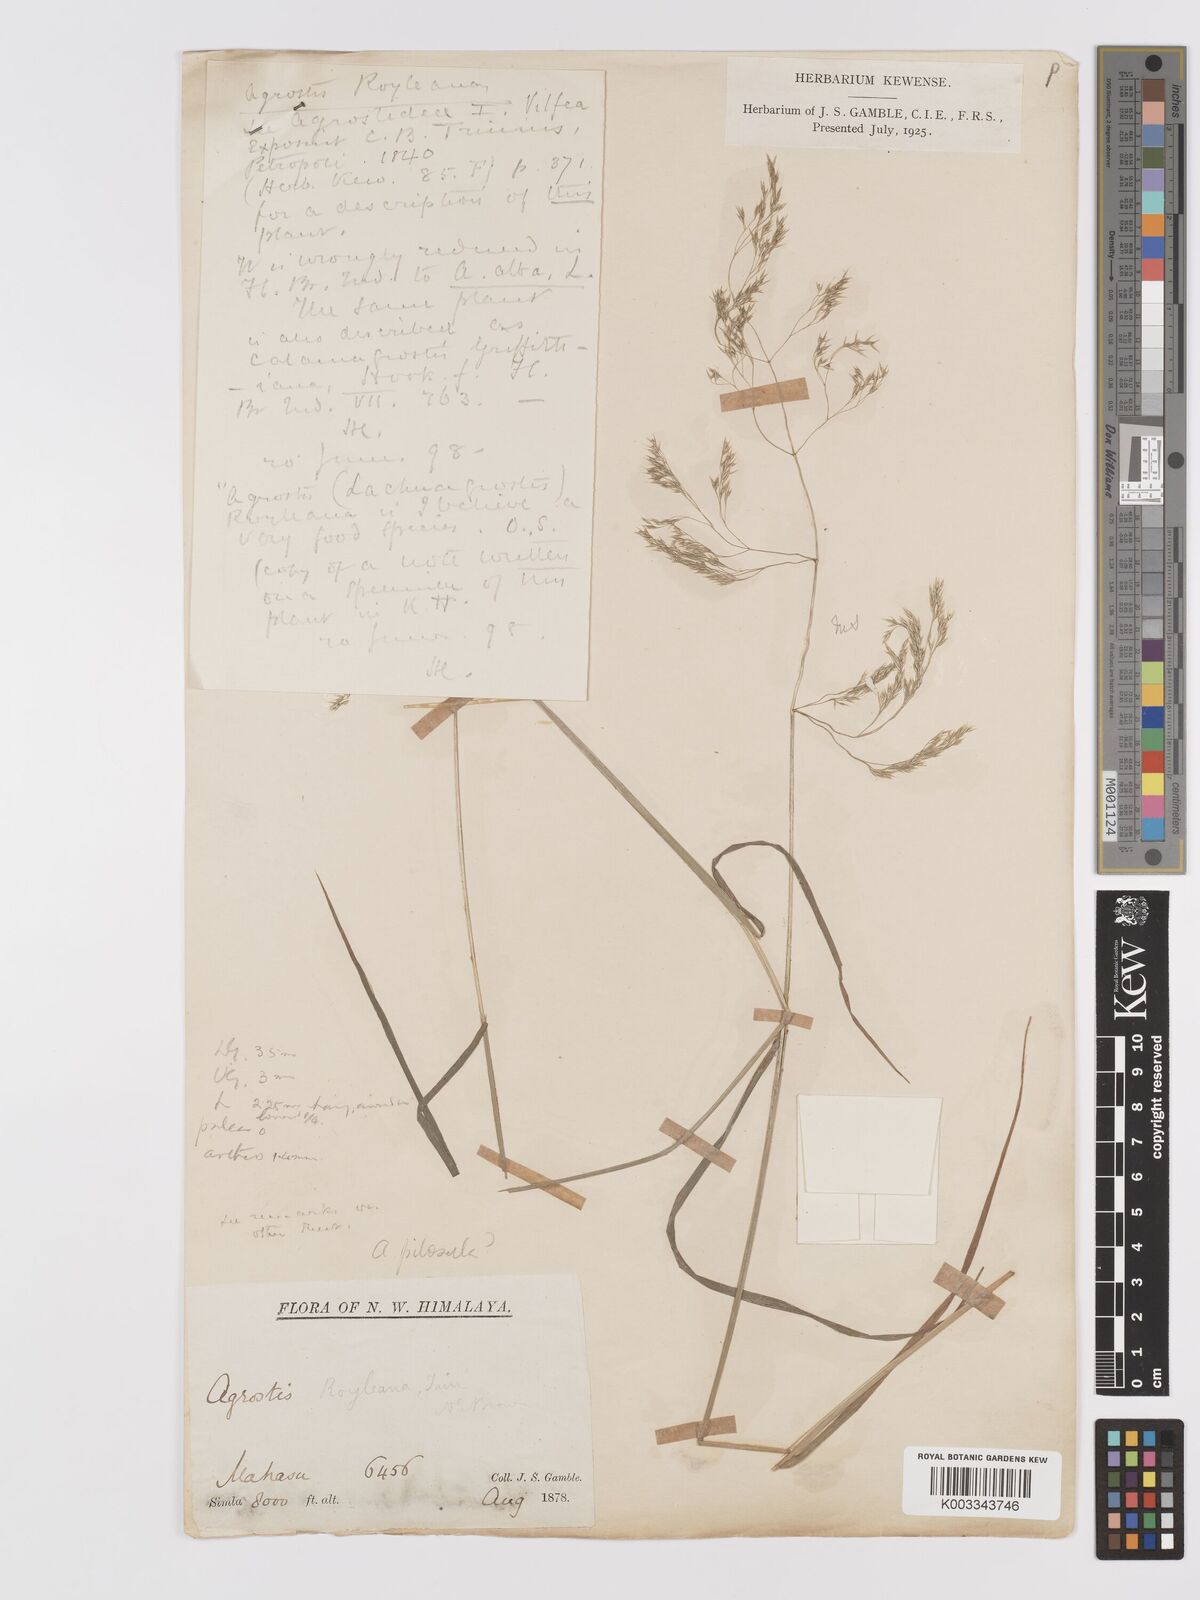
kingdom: Plantae
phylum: Tracheophyta
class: Liliopsida
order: Poales
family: Poaceae
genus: Agrostis
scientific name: Agrostis pilosula
